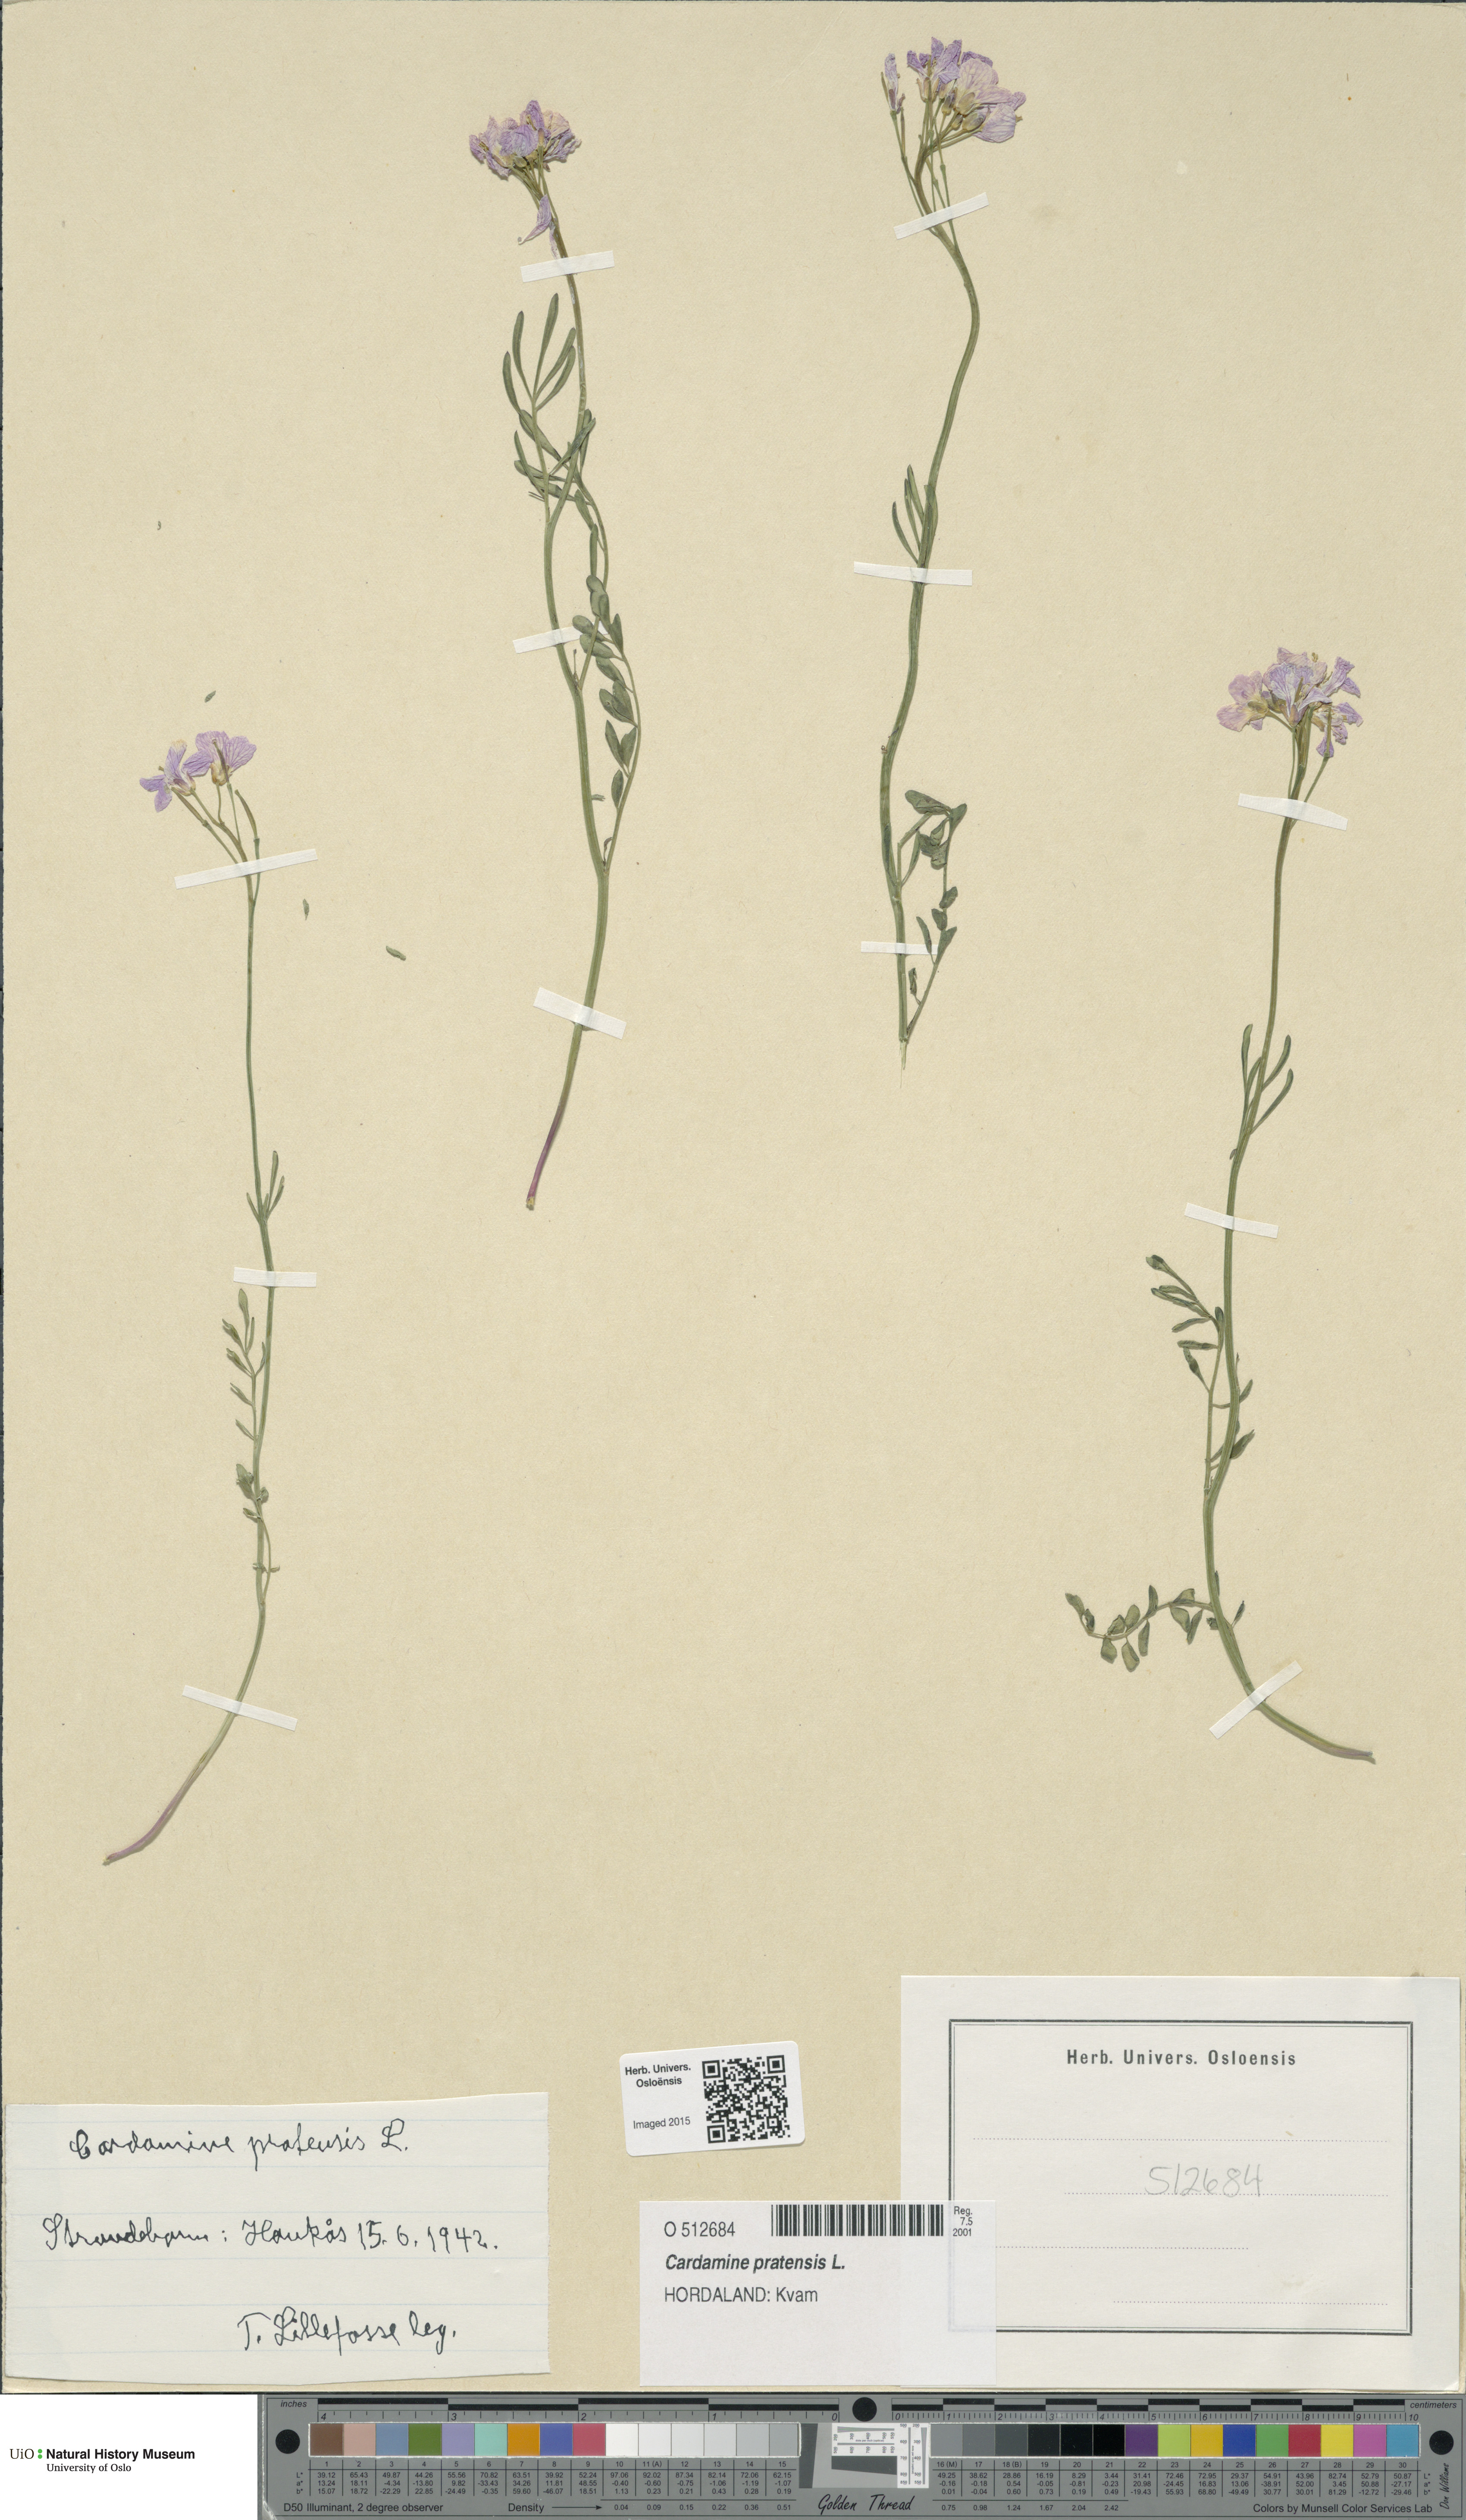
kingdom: Plantae
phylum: Tracheophyta
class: Magnoliopsida
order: Brassicales
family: Brassicaceae
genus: Cardamine
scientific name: Cardamine pratensis
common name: Cuckoo flower
